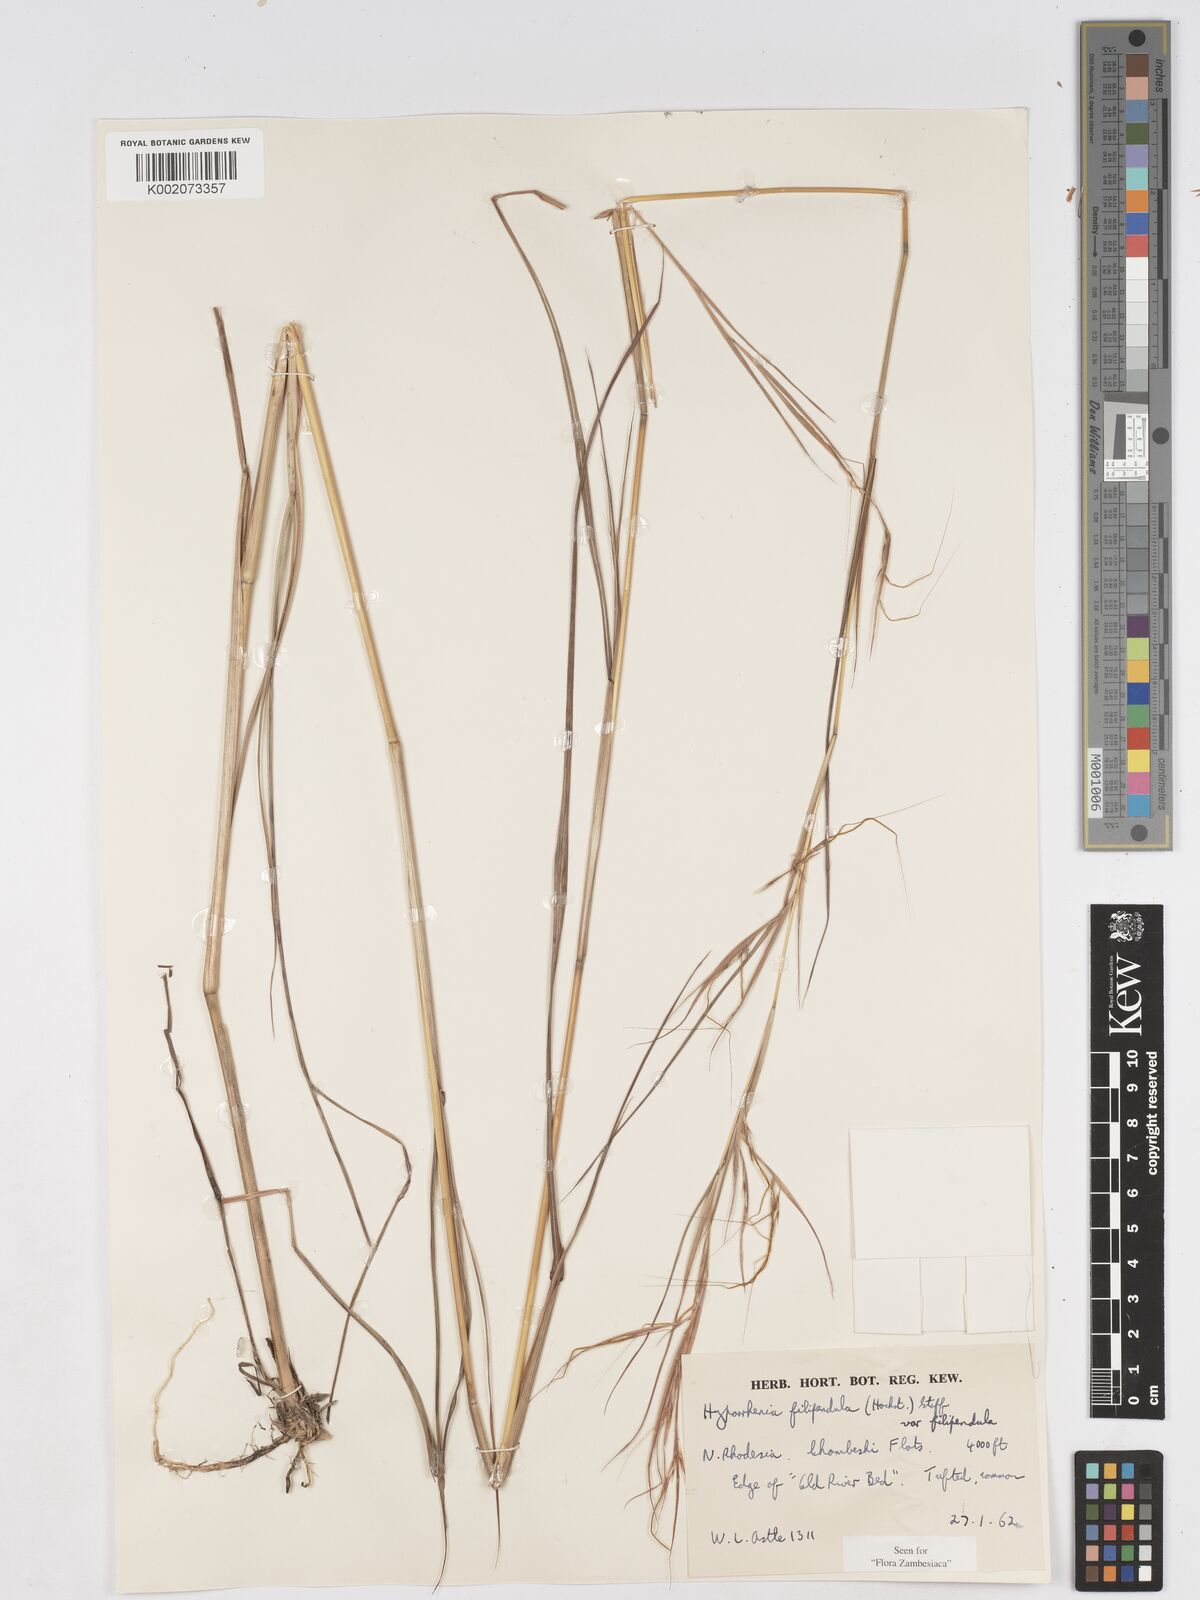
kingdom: Plantae
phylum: Tracheophyta
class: Liliopsida
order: Poales
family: Poaceae
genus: Hyparrhenia
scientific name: Hyparrhenia filipendula
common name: Tambookie grass
